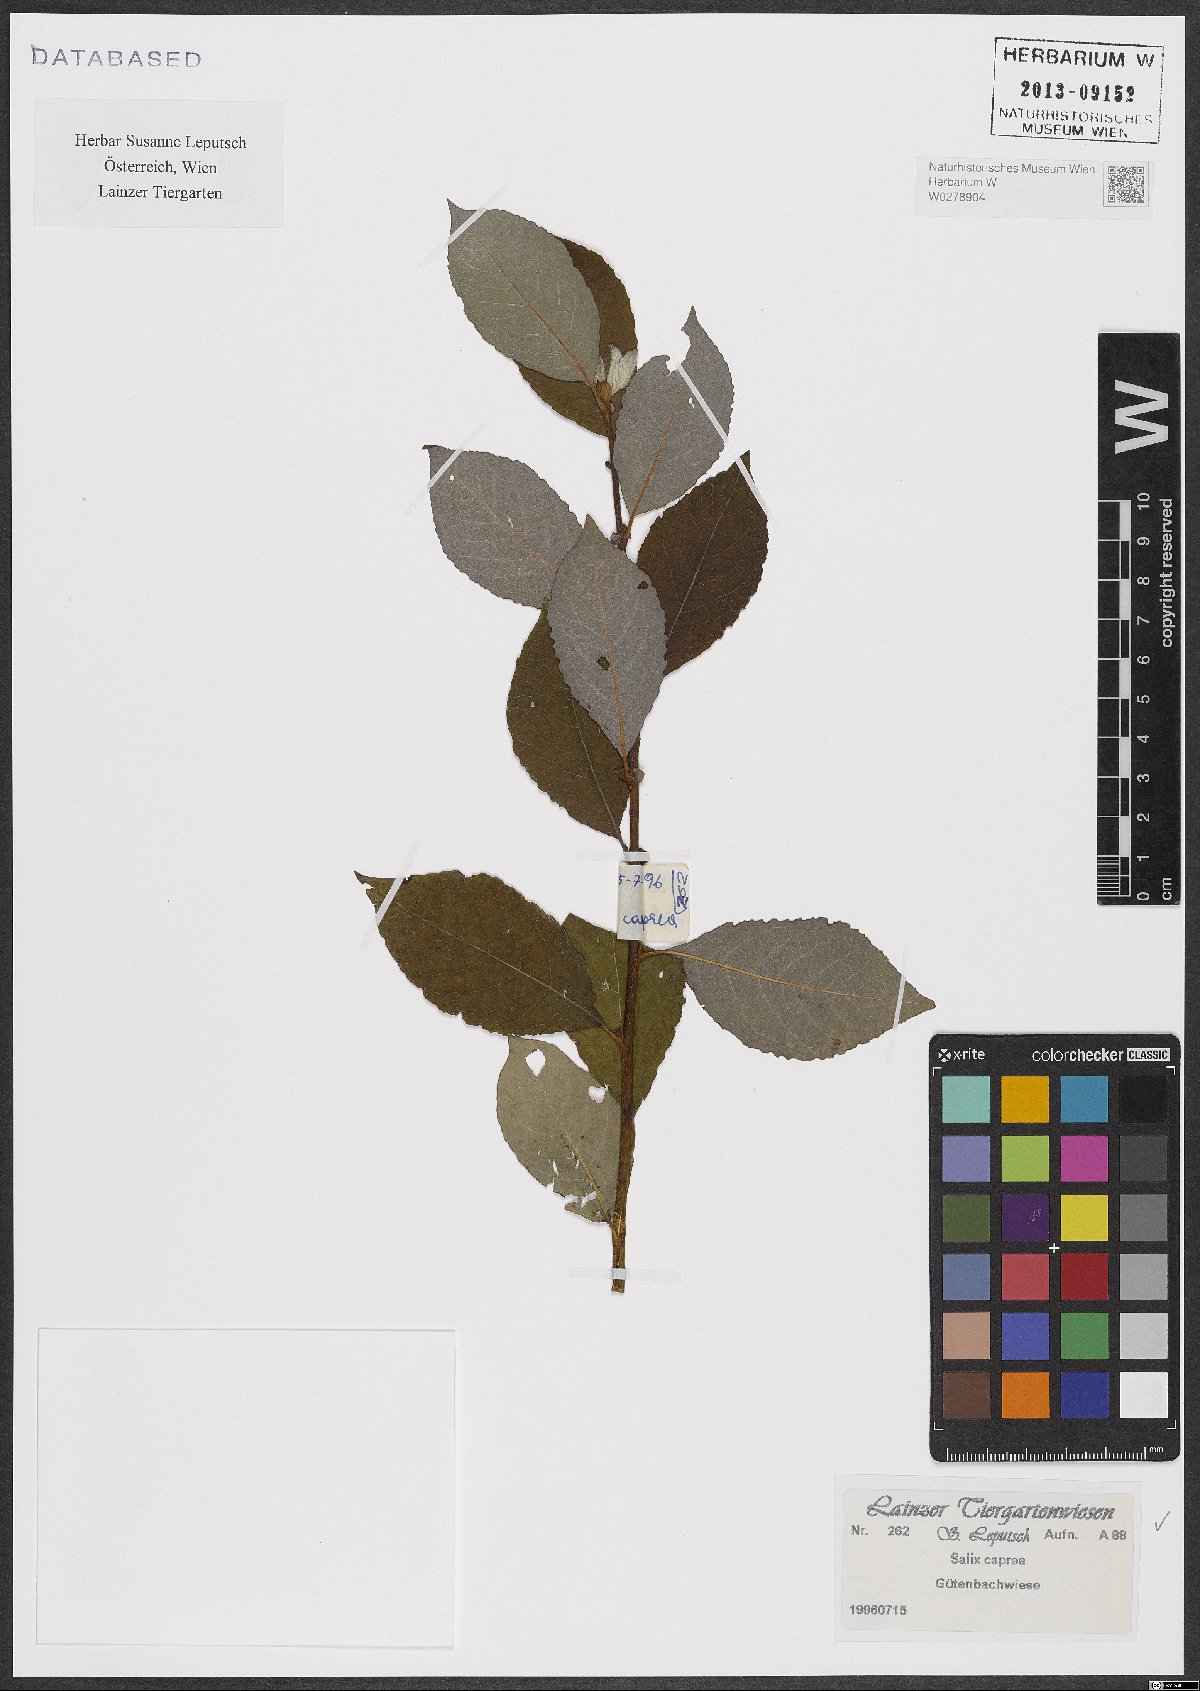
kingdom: Plantae
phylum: Tracheophyta
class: Magnoliopsida
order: Malpighiales
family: Salicaceae
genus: Salix
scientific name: Salix caprea
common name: Goat willow
